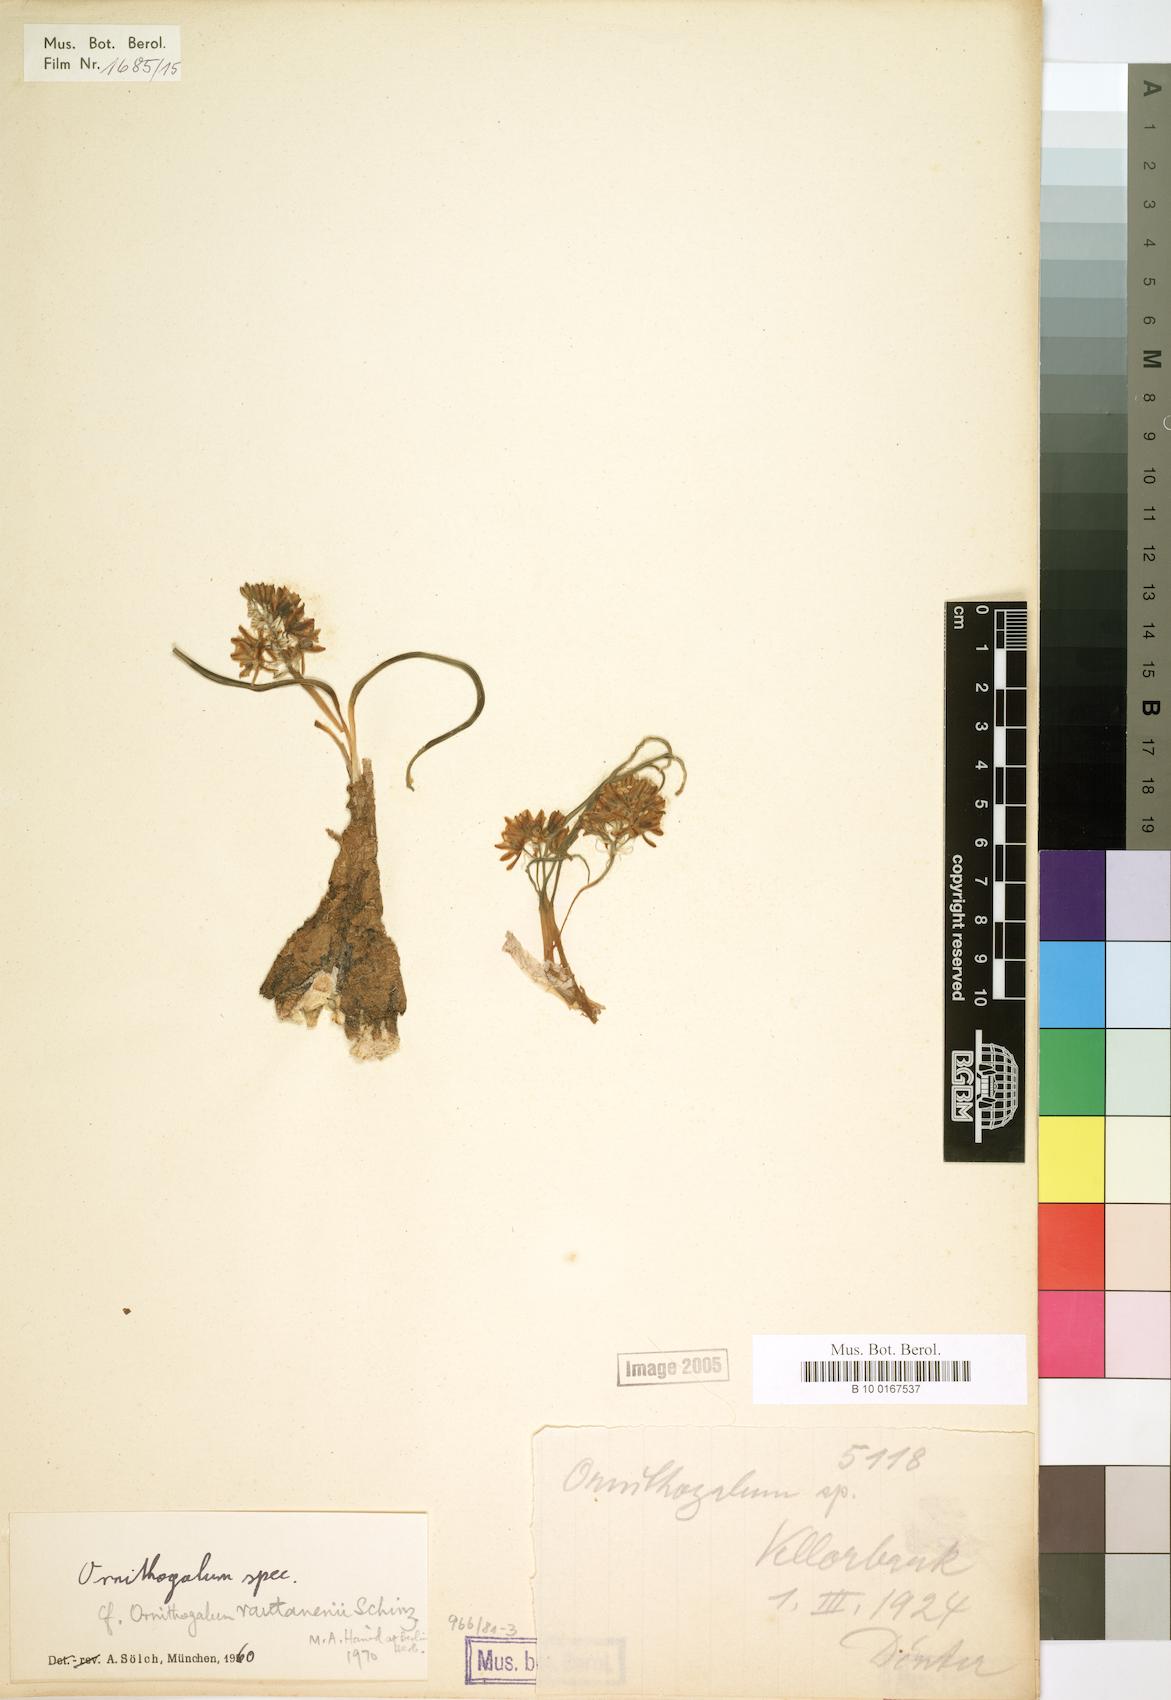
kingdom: Plantae
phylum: Tracheophyta
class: Liliopsida
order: Liliales
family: Liliaceae
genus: Ornithogalum
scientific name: Ornithogalum
